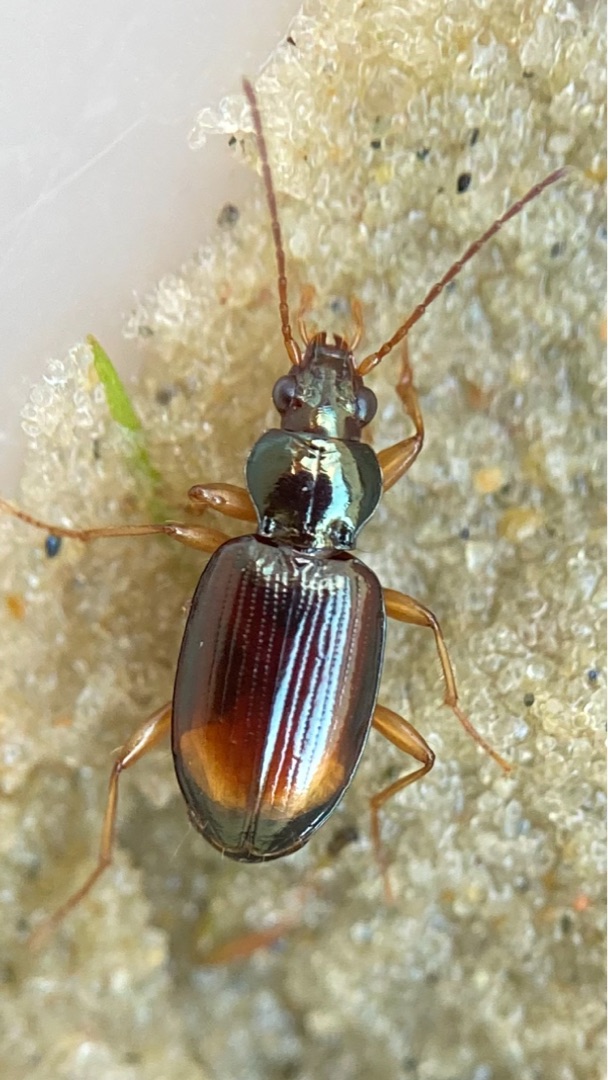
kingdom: Animalia
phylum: Arthropoda
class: Insecta
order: Coleoptera
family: Carabidae
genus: Bembidion
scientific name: Bembidion lunatum
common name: Måneplettet glansløber
